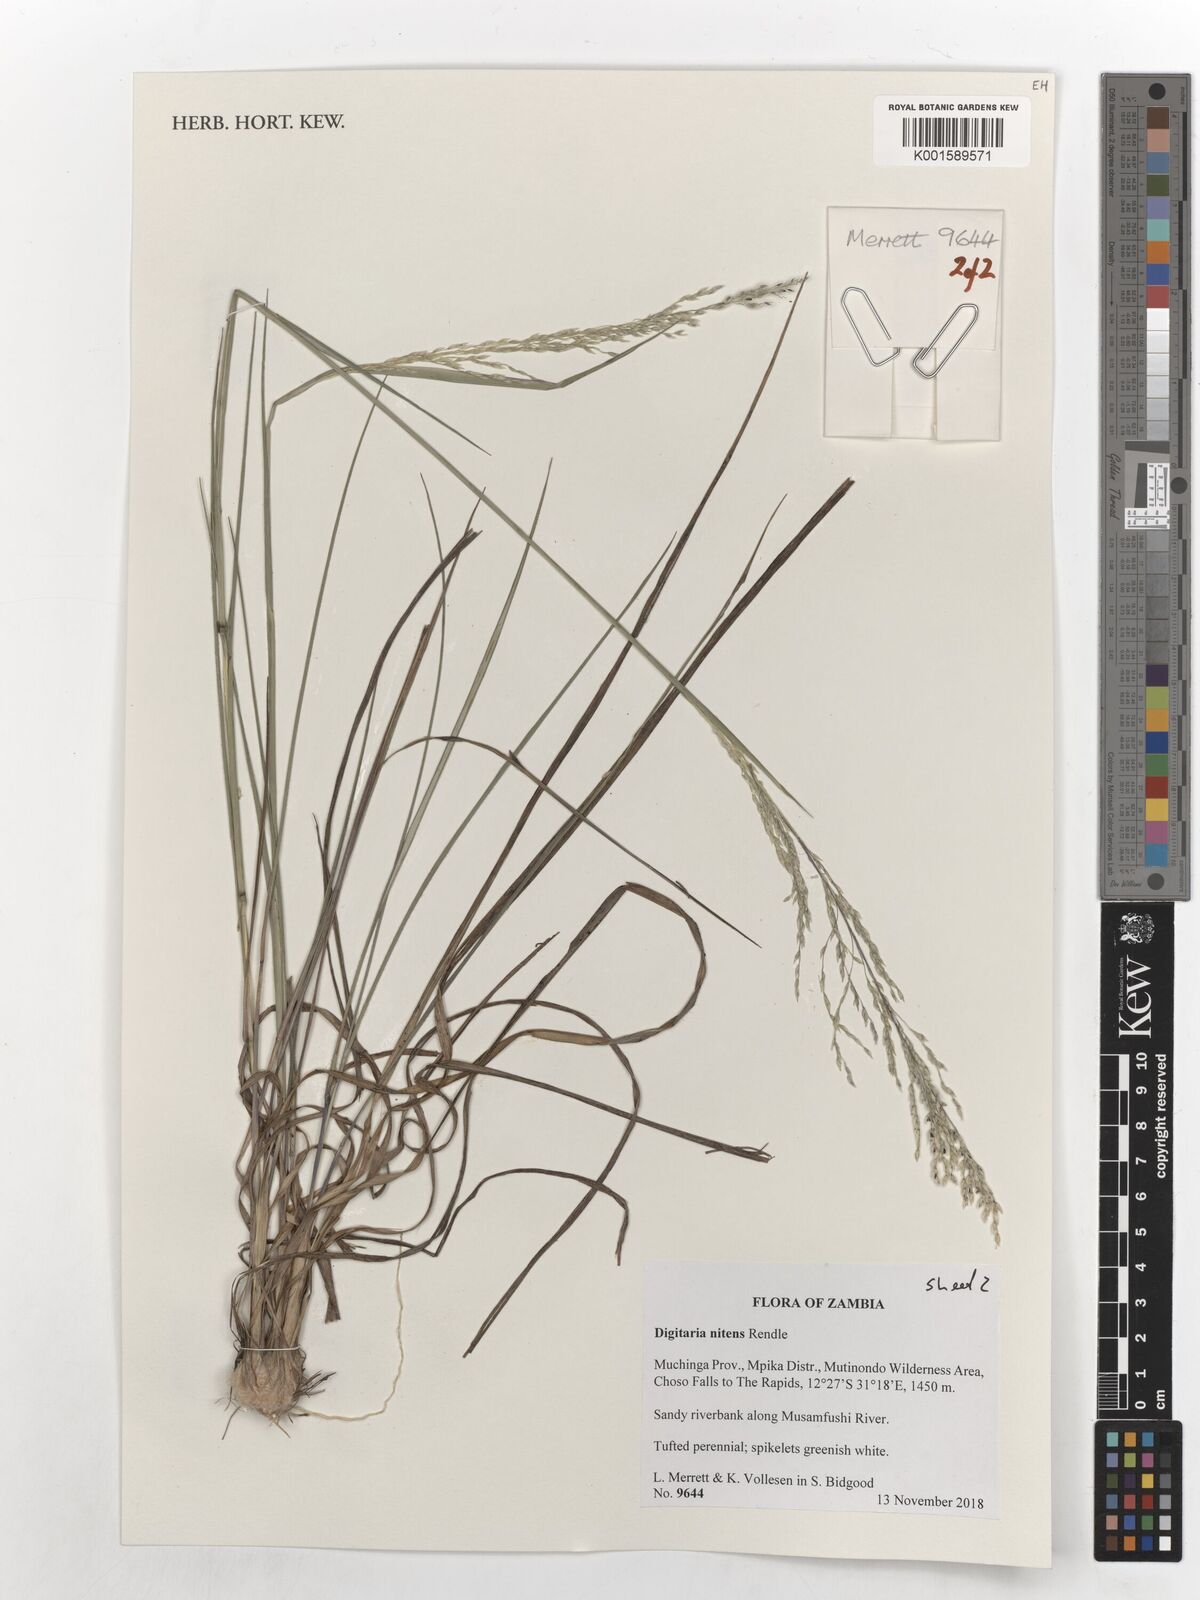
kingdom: Plantae
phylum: Tracheophyta
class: Liliopsida
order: Poales
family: Poaceae
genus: Digitaria
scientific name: Digitaria flaccida
